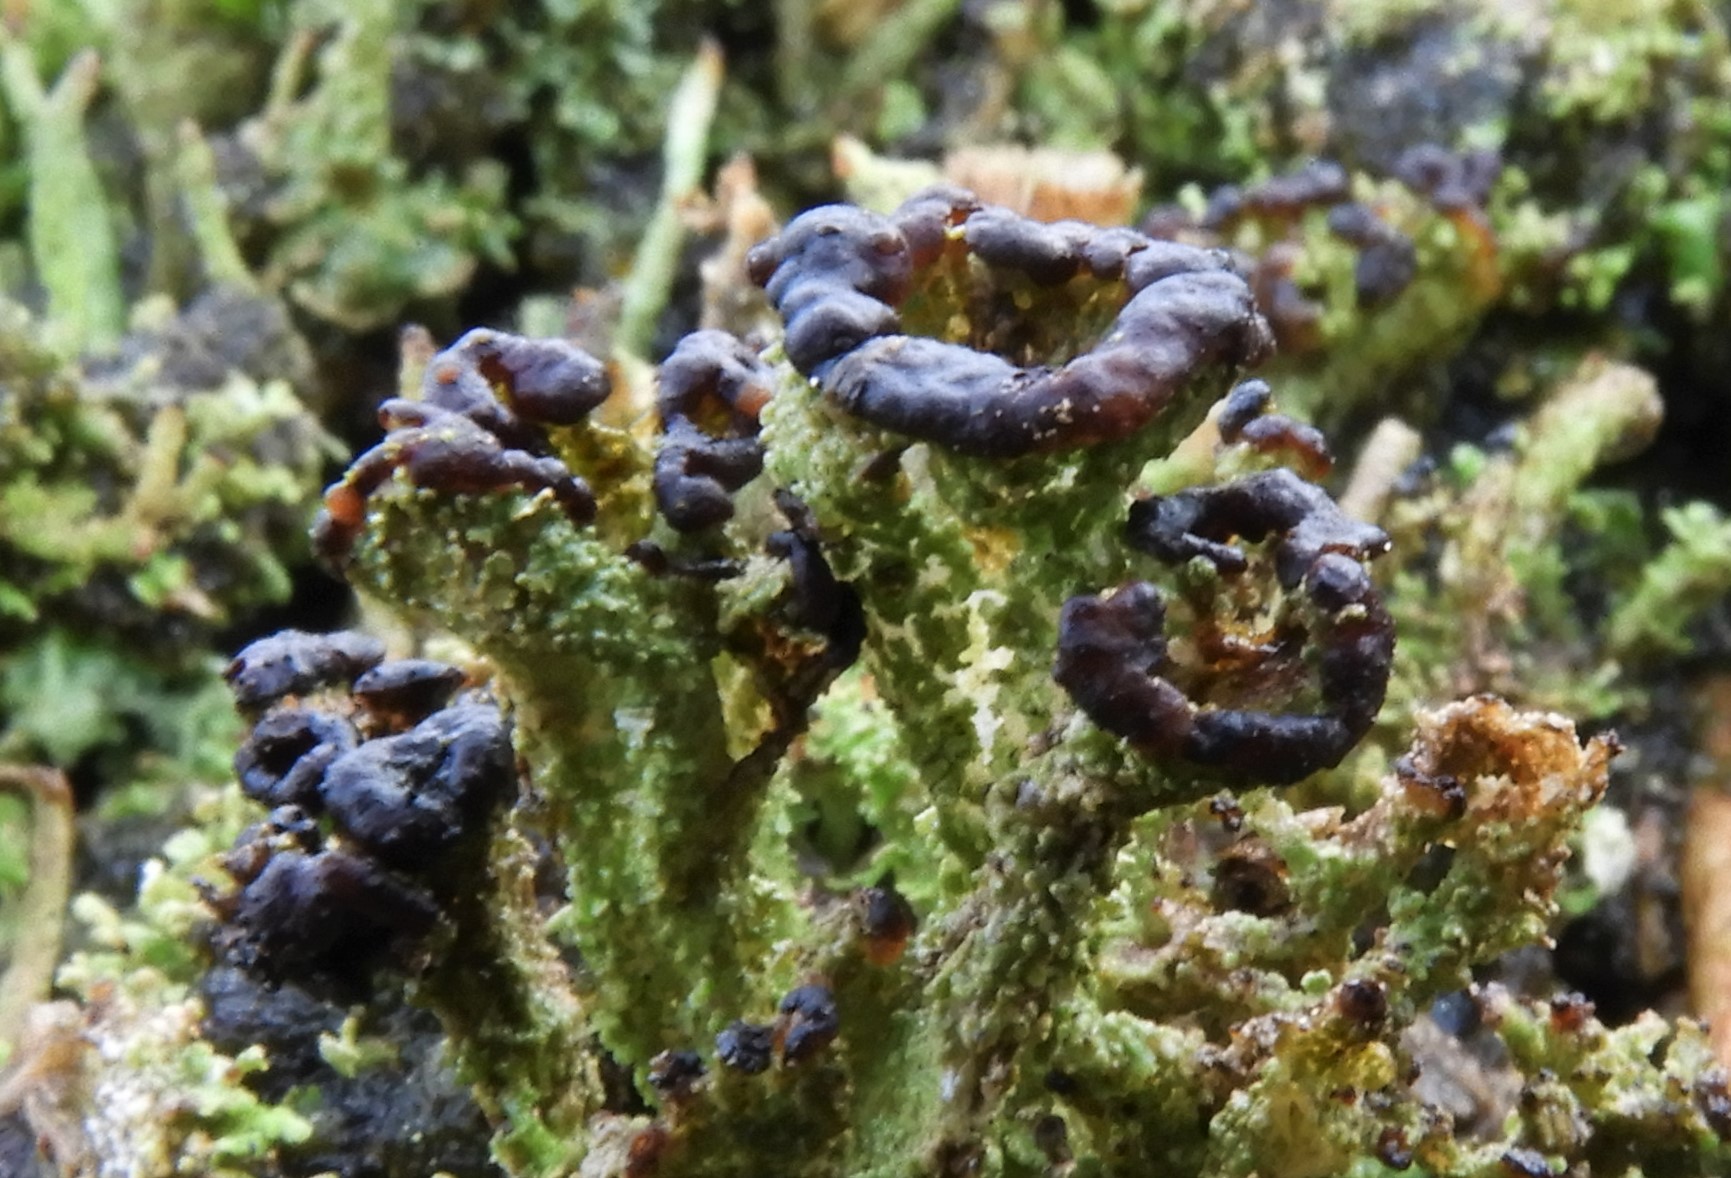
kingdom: Fungi
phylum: Ascomycota
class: Lecanoromycetes
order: Lecanorales
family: Cladoniaceae
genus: Cladonia
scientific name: Cladonia ramulosa
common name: kliddet bægerlav
